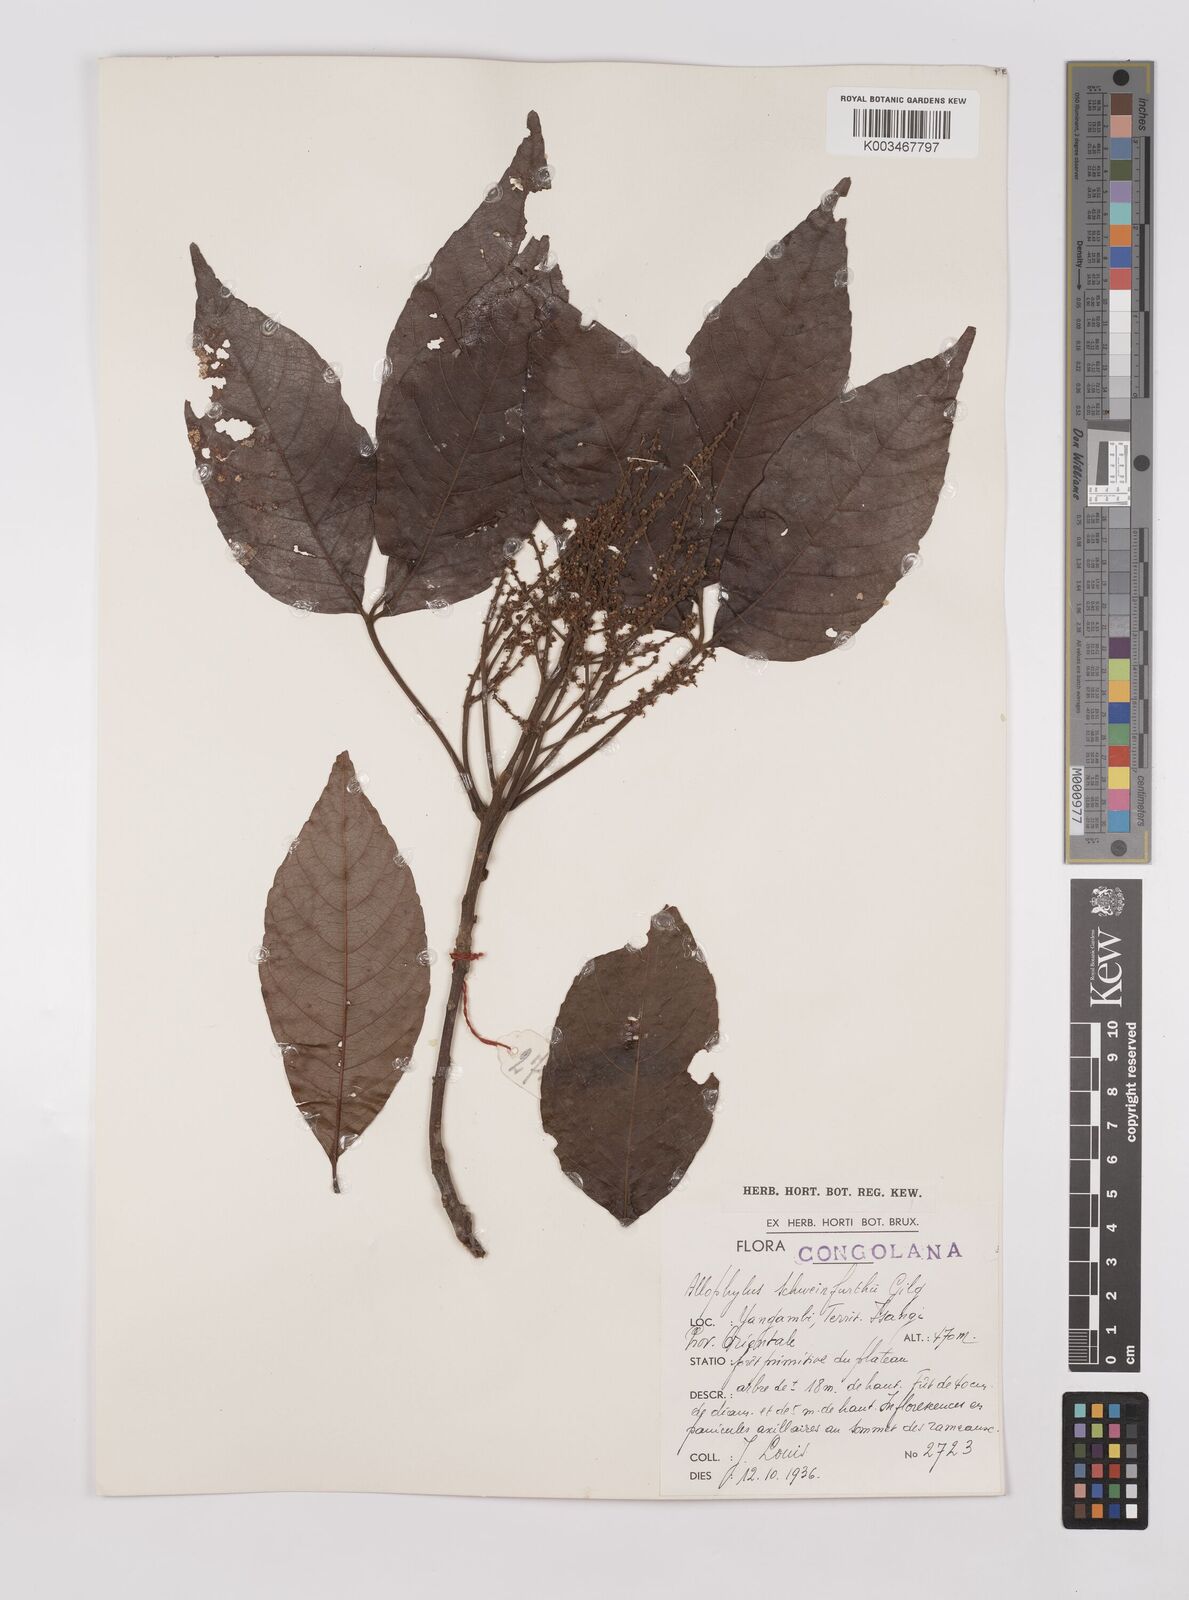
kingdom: Plantae
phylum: Tracheophyta
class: Magnoliopsida
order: Sapindales
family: Sapindaceae
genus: Allophylus
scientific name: Allophylus africanus
